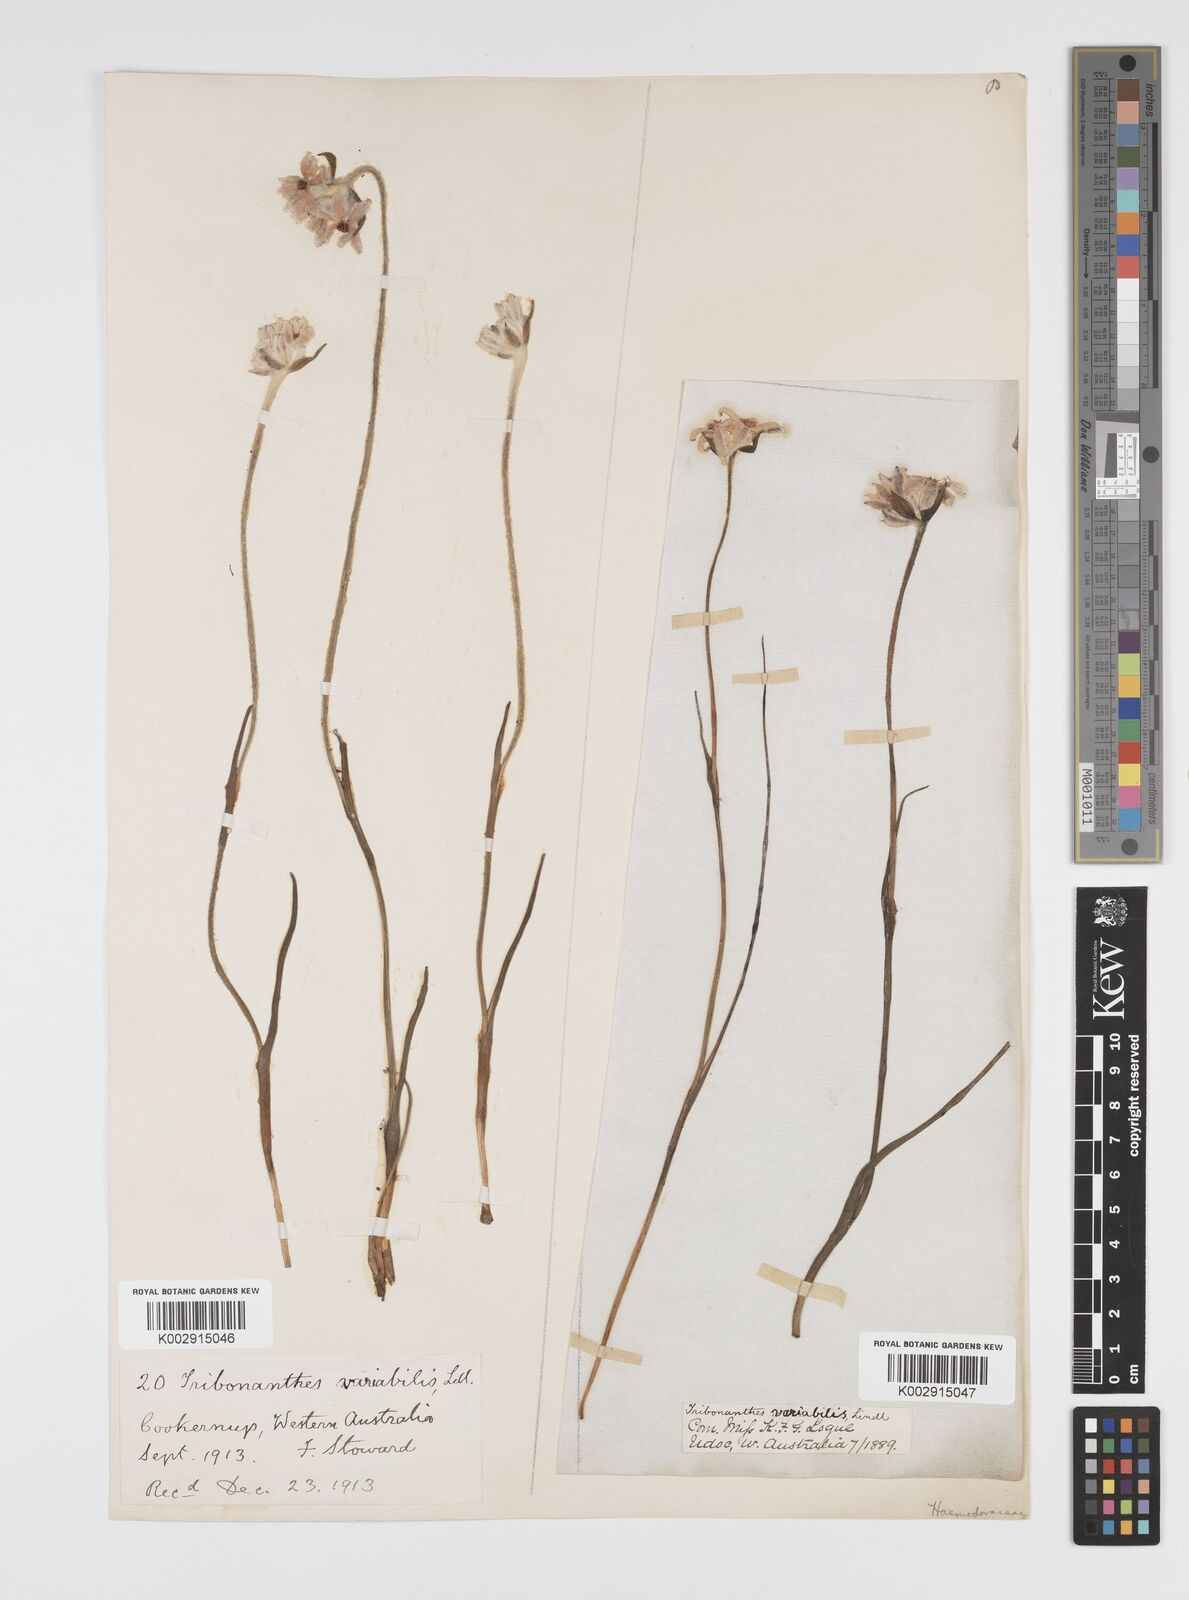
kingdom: Plantae
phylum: Tracheophyta
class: Liliopsida
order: Commelinales
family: Haemodoraceae
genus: Tribonanthes
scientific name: Tribonanthes australis
